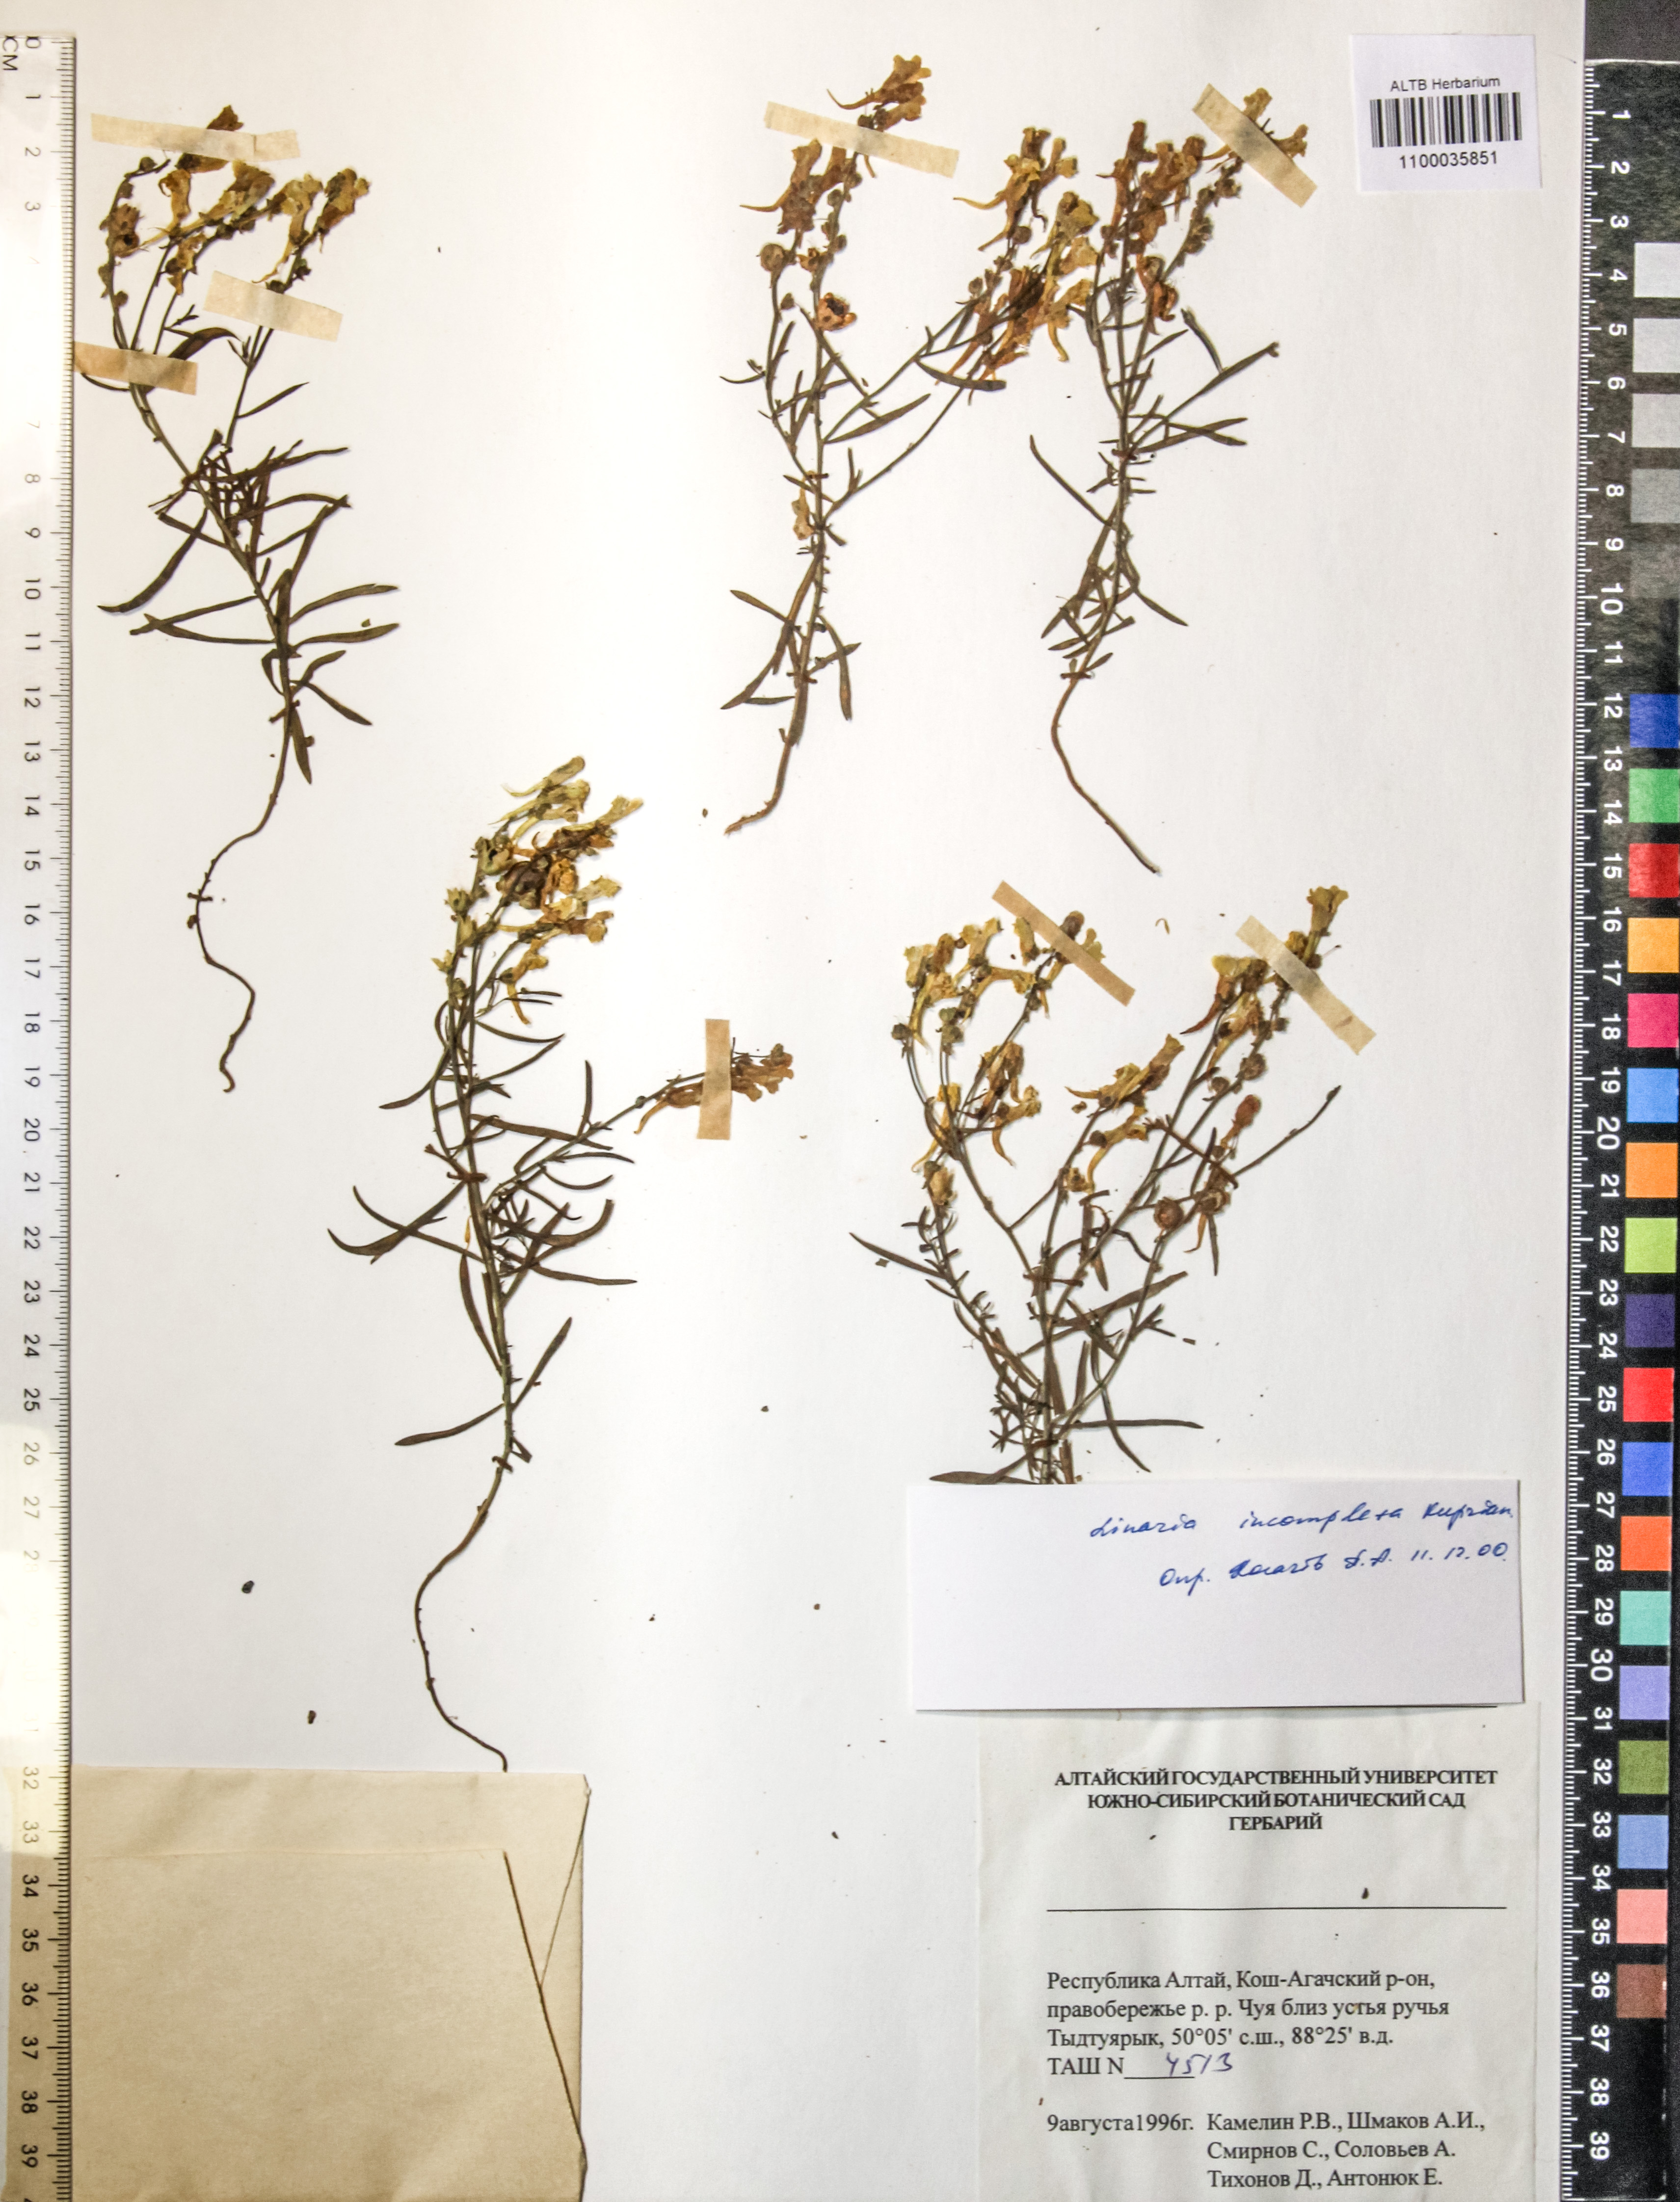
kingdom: Plantae
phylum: Tracheophyta
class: Magnoliopsida
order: Lamiales
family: Plantaginaceae
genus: Linaria
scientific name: Linaria incompleta
